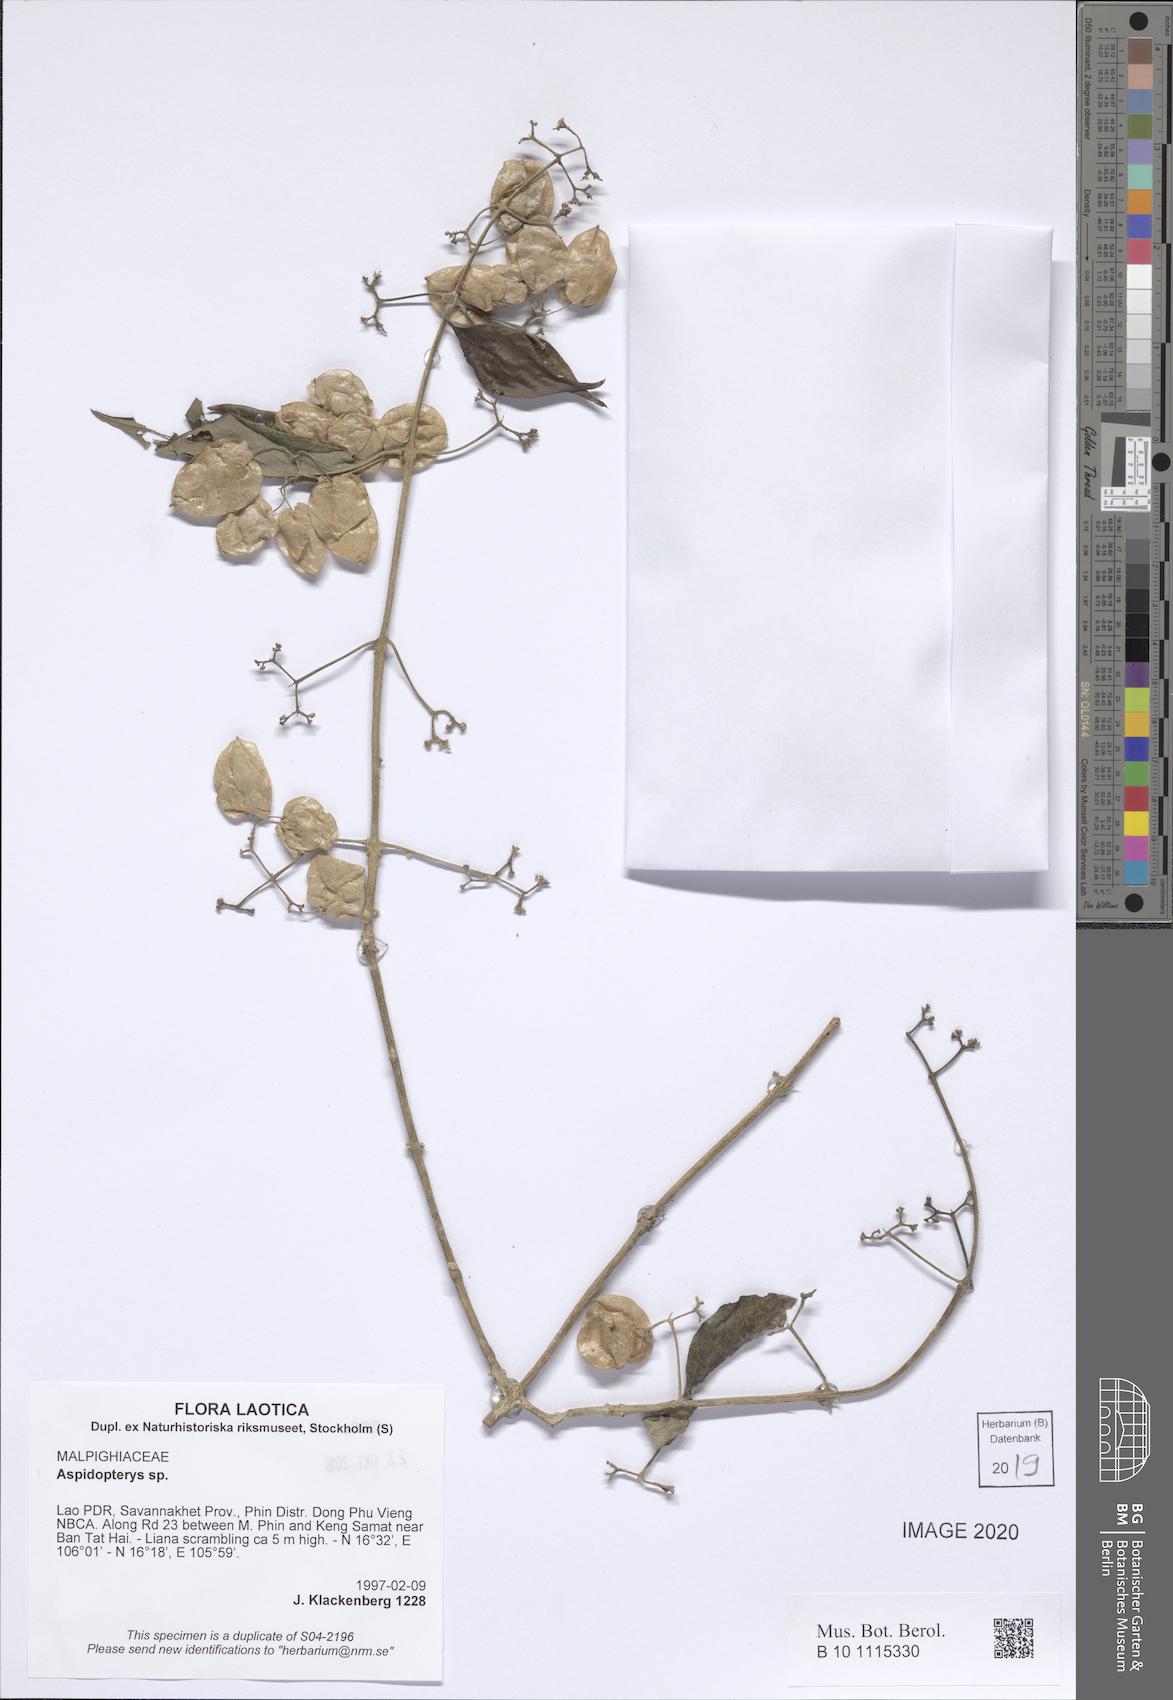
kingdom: Plantae
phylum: Tracheophyta
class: Magnoliopsida
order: Malpighiales
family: Malpighiaceae
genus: Aspidopterys
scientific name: Aspidopterys
